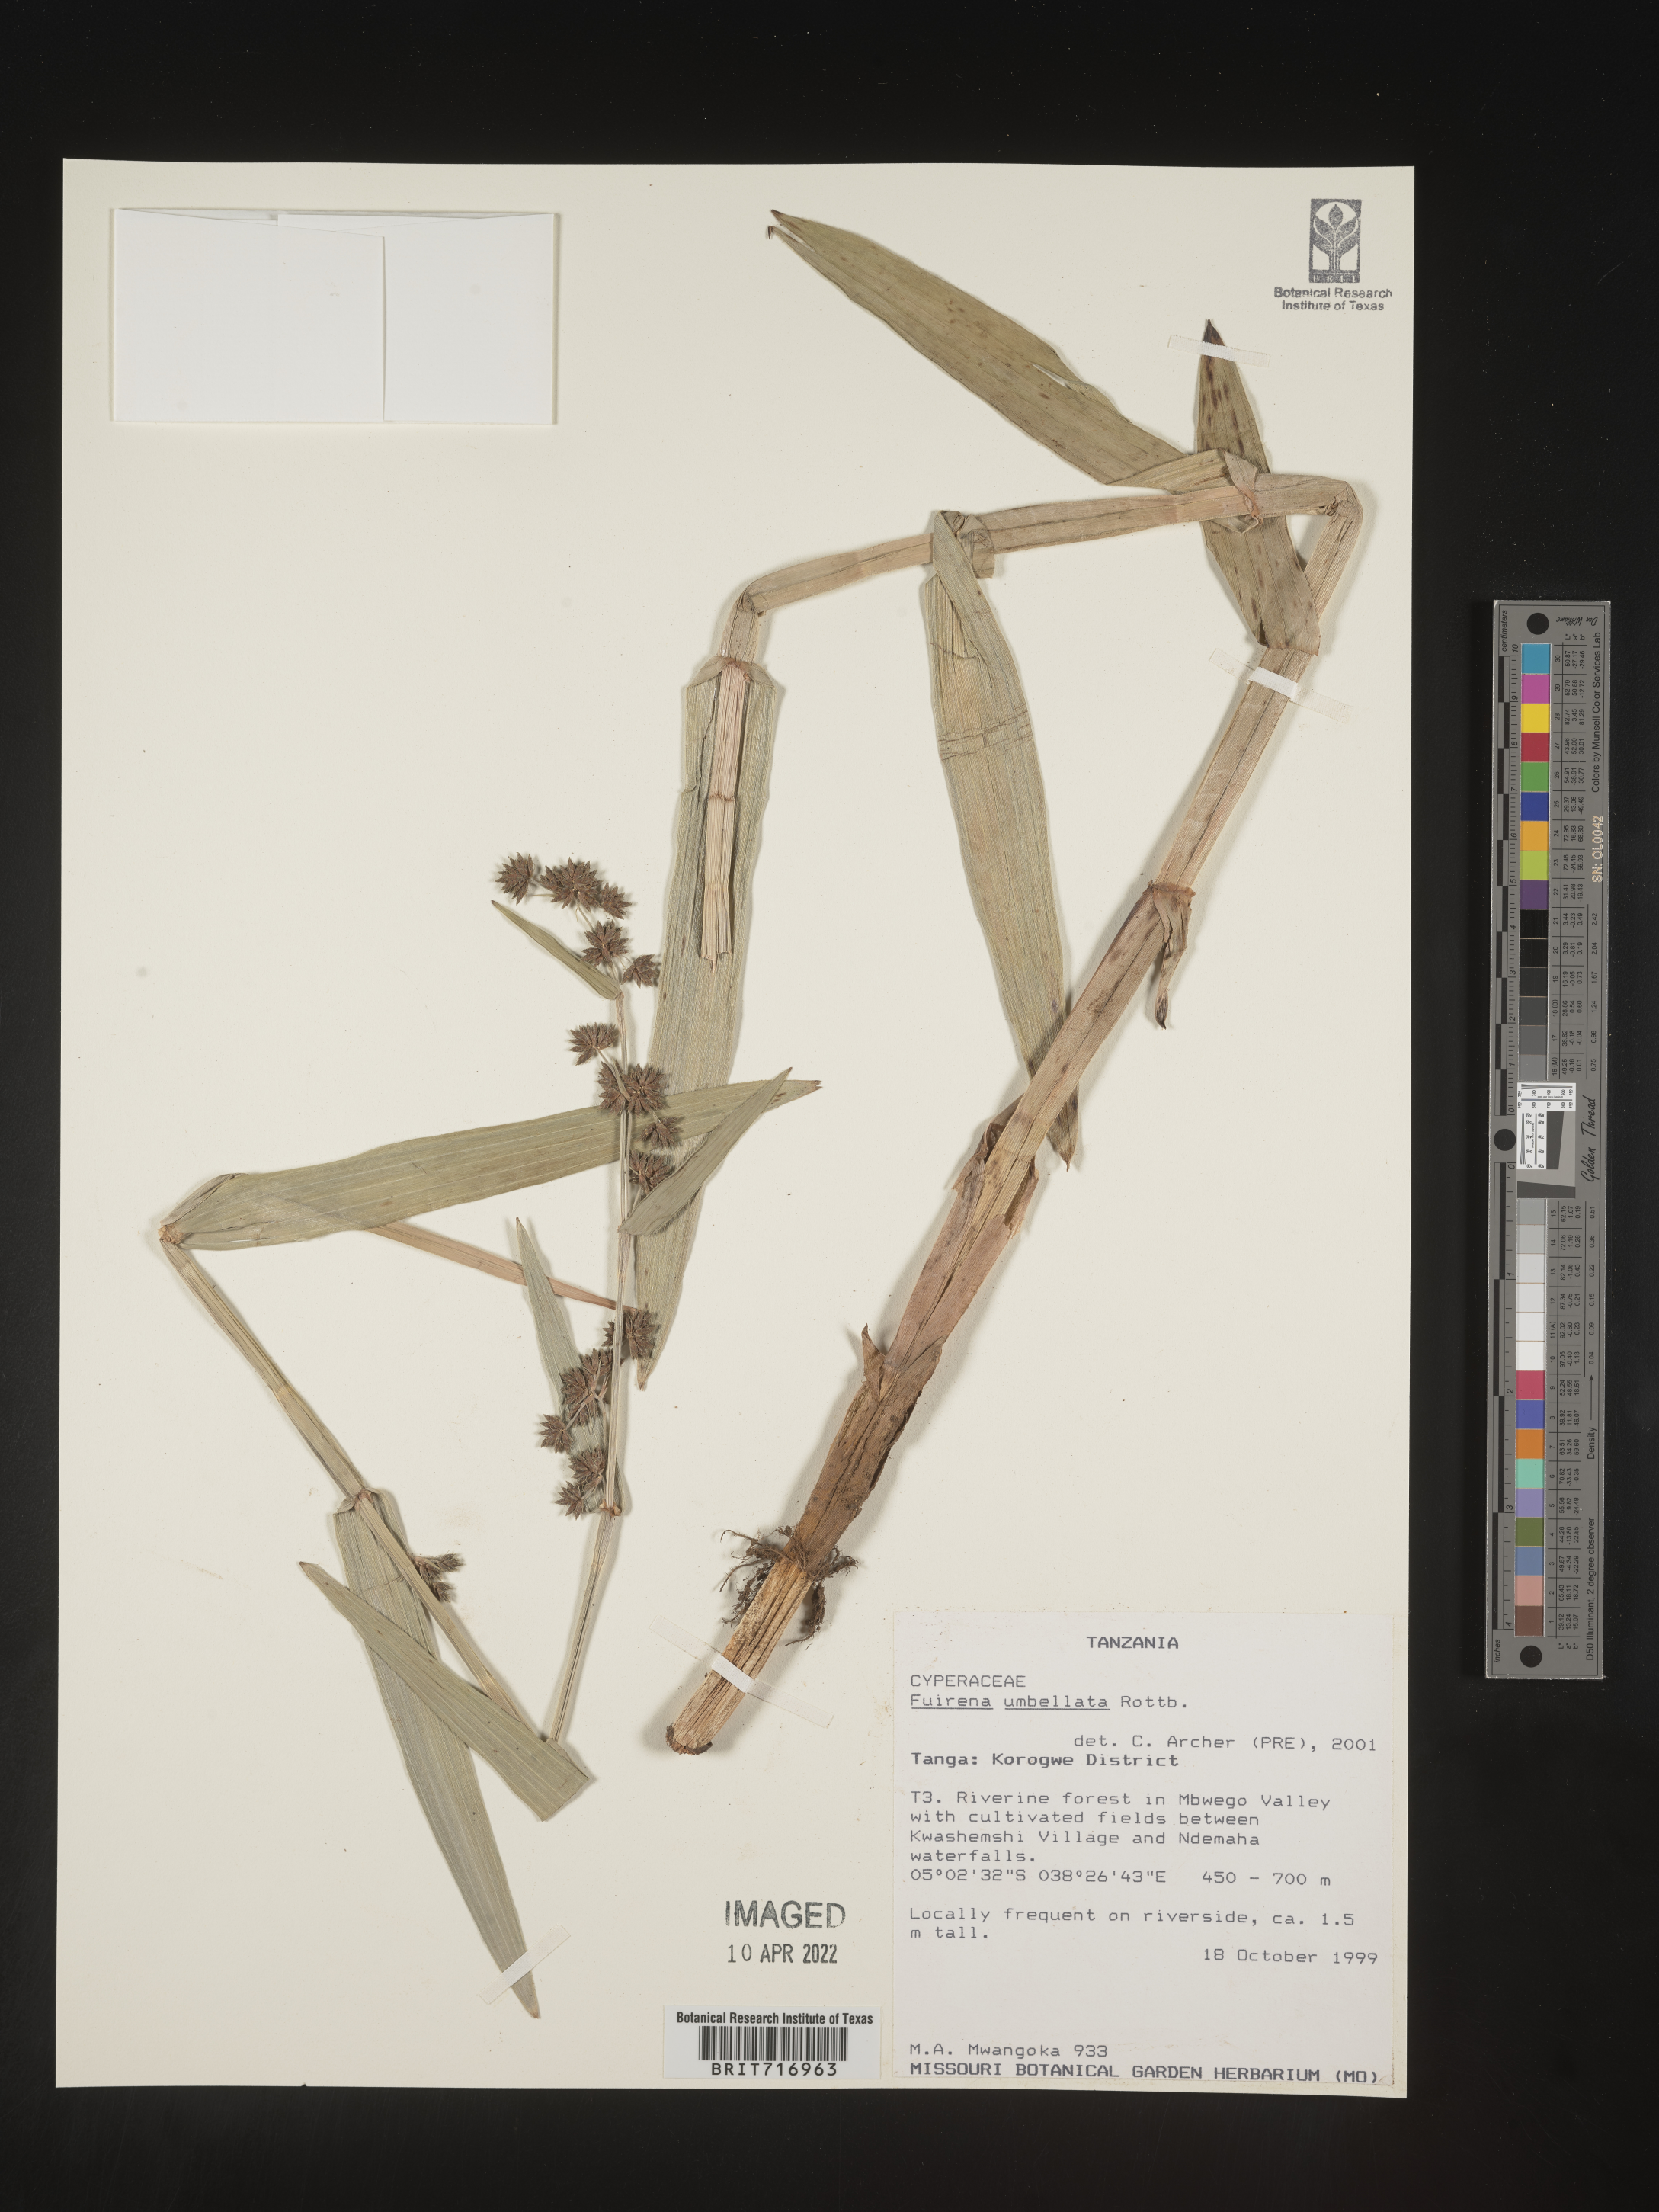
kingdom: Plantae
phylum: Tracheophyta
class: Liliopsida
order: Poales
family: Cyperaceae
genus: Fuirena
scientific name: Fuirena
